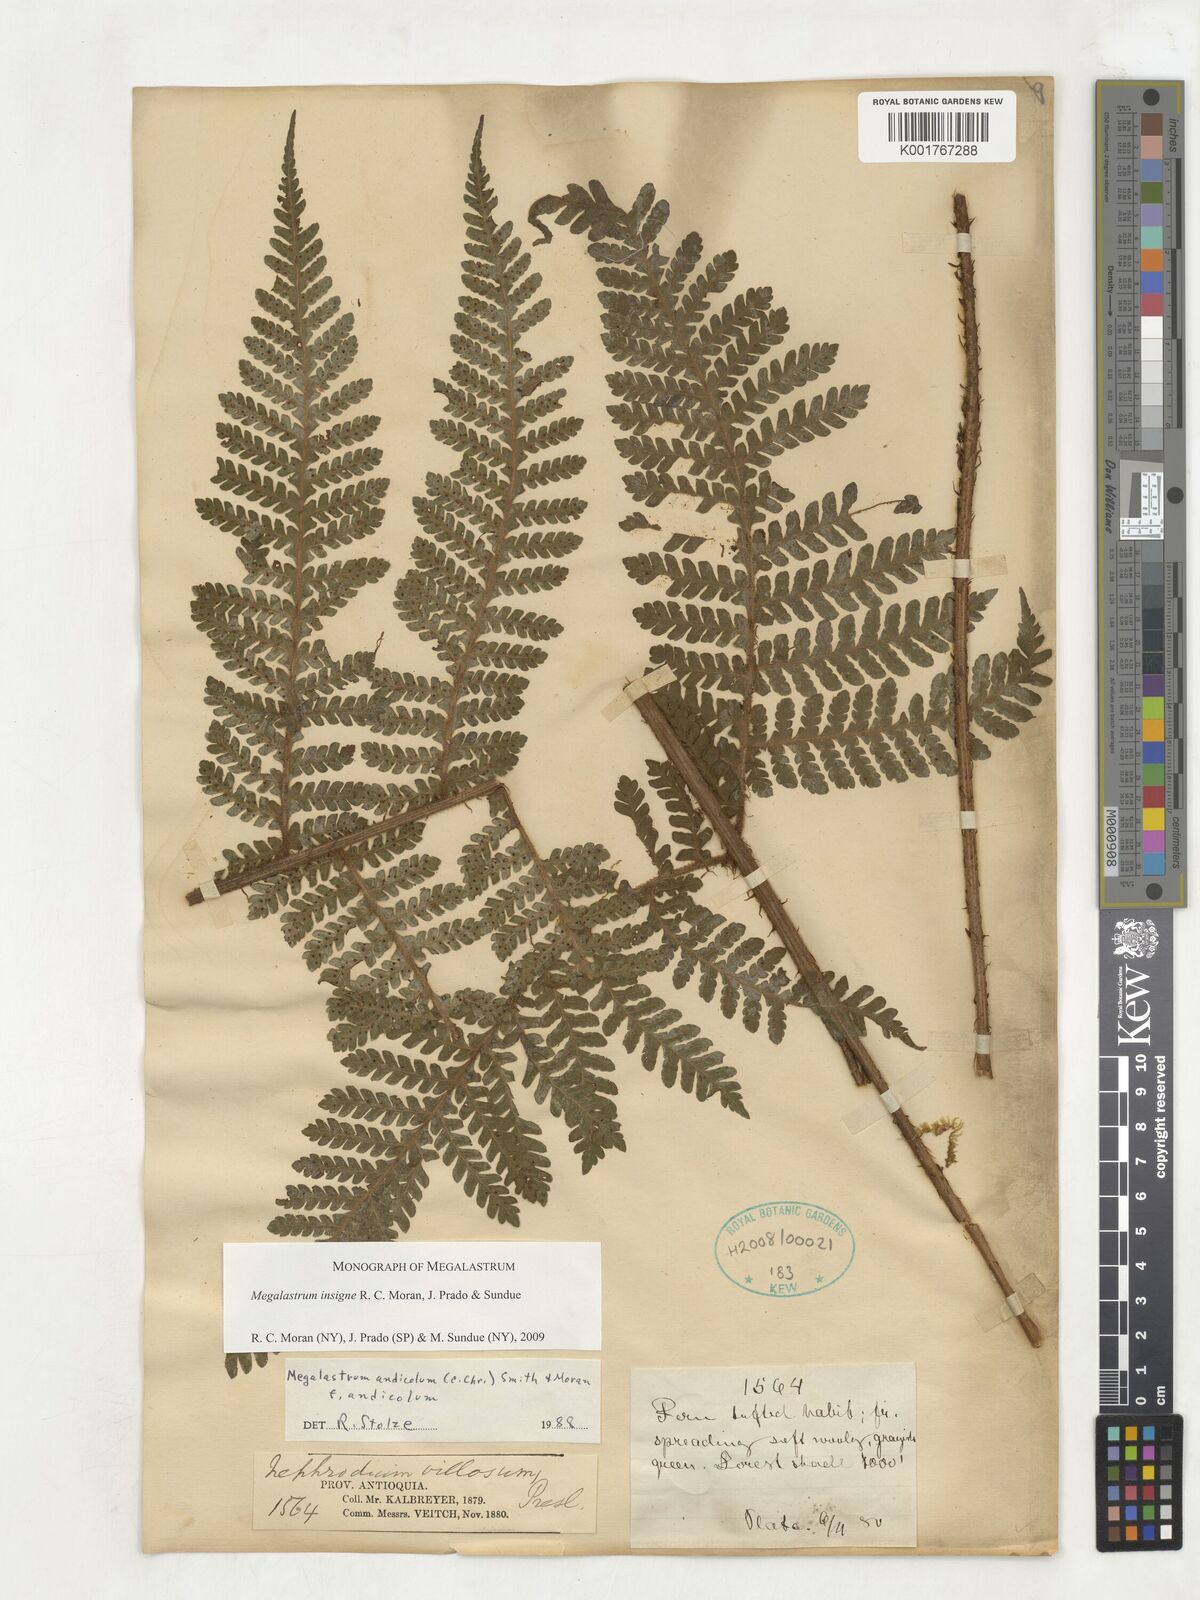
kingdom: Plantae
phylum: Tracheophyta
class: Polypodiopsida
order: Polypodiales
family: Dryopteridaceae
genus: Megalastrum
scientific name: Megalastrum insigne
